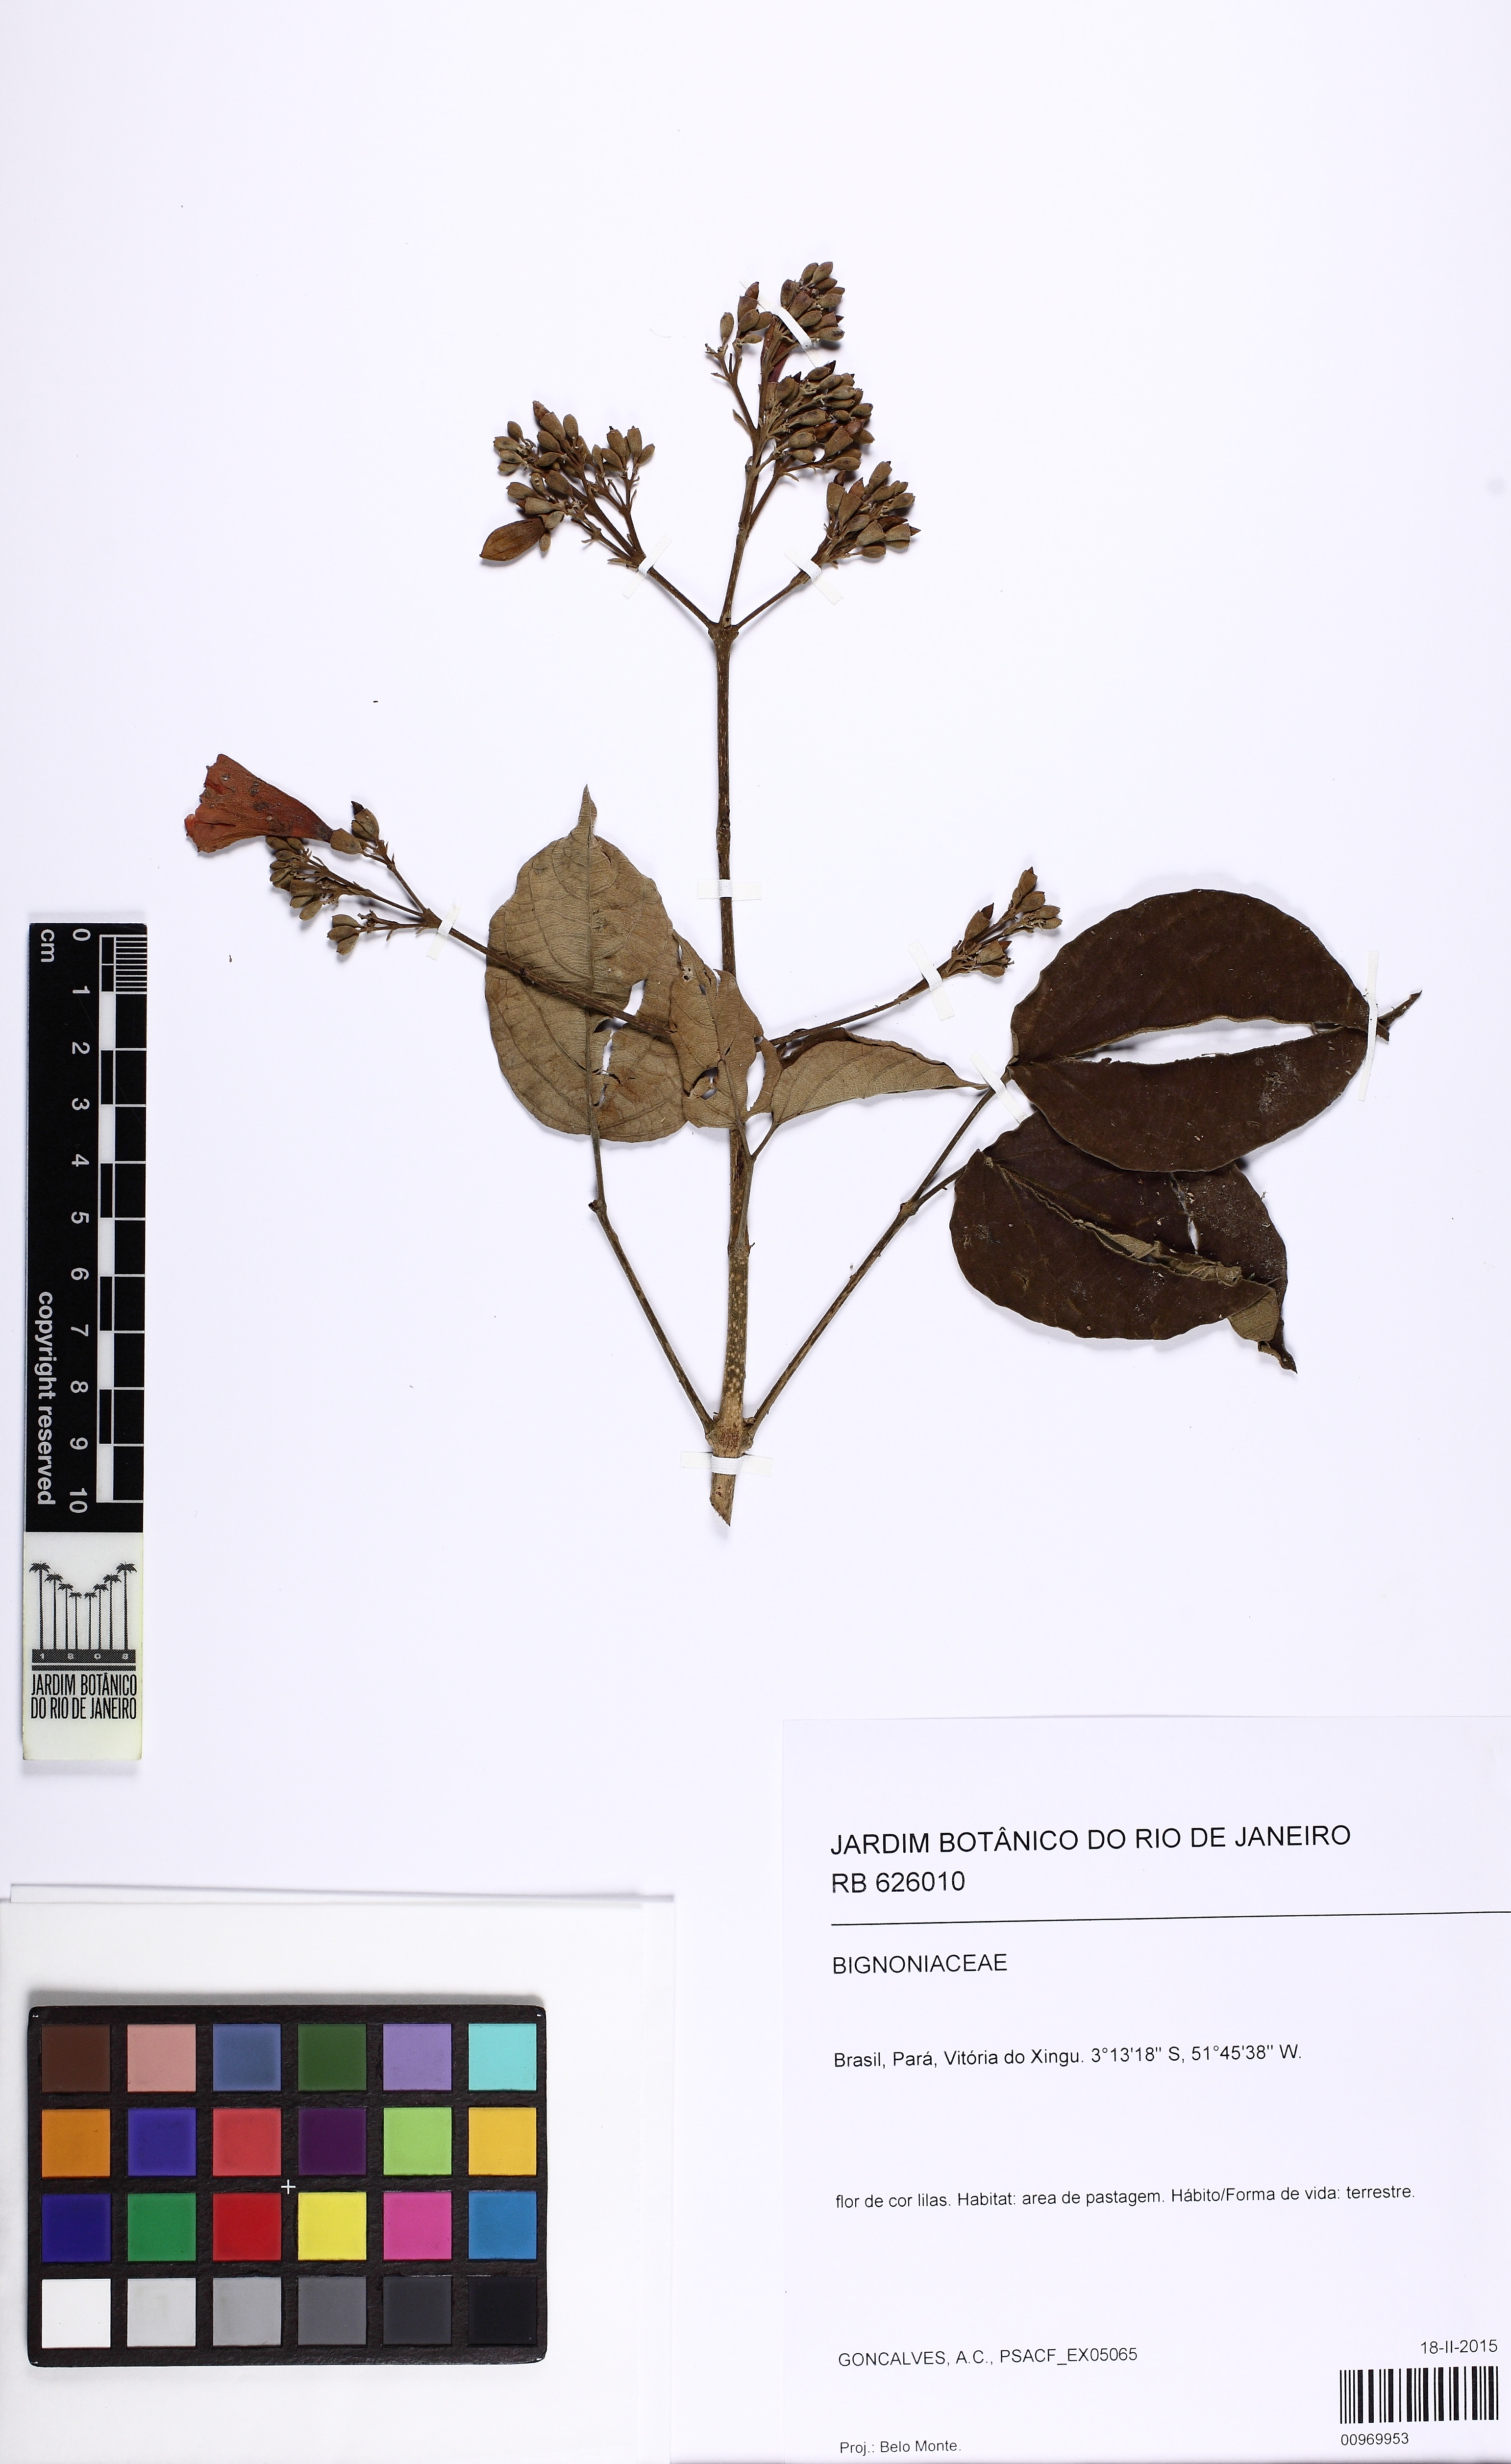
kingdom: Plantae
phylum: Tracheophyta
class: Magnoliopsida
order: Lamiales
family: Bignoniaceae
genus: Fridericia
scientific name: Fridericia
